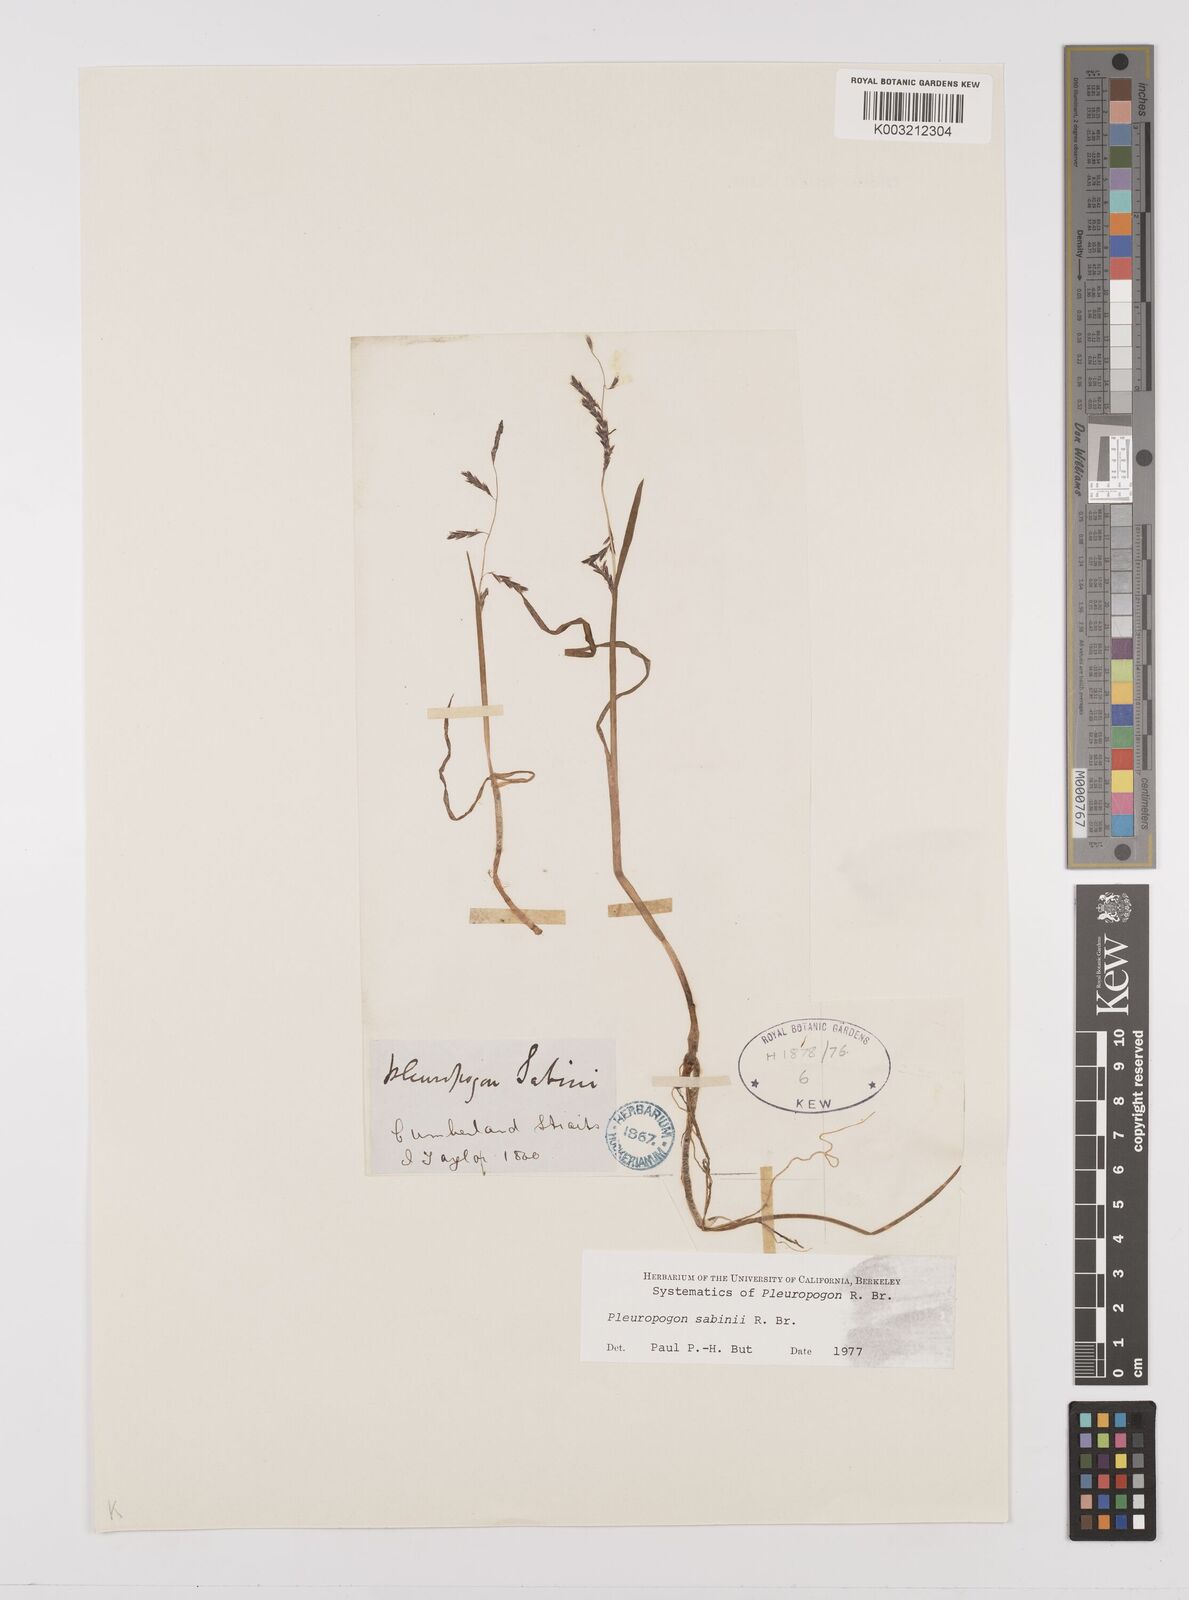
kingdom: Plantae
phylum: Tracheophyta
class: Liliopsida
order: Poales
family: Poaceae
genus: Pleuropogon
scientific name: Pleuropogon sabinei
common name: Sabine's false semaphoregrass
